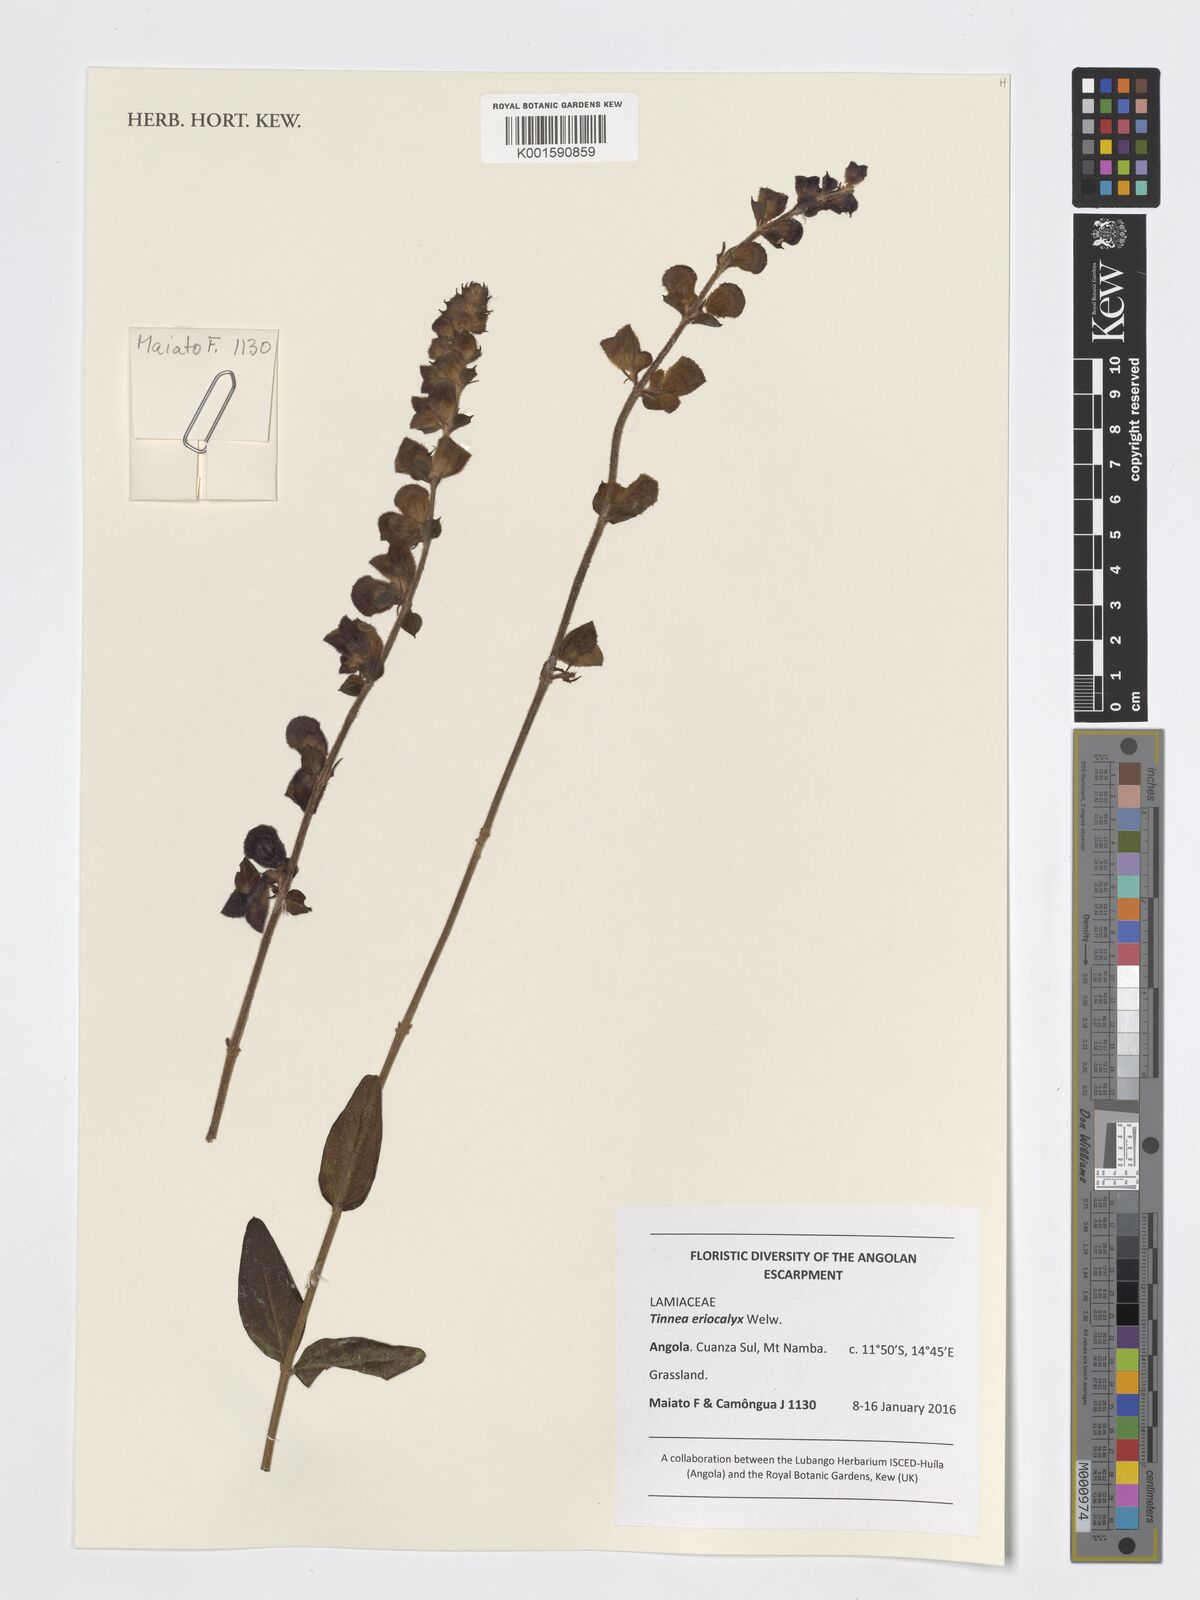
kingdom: Plantae
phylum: Tracheophyta
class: Magnoliopsida
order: Lamiales
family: Lamiaceae
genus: Tinnea
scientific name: Tinnea eriocalyx
